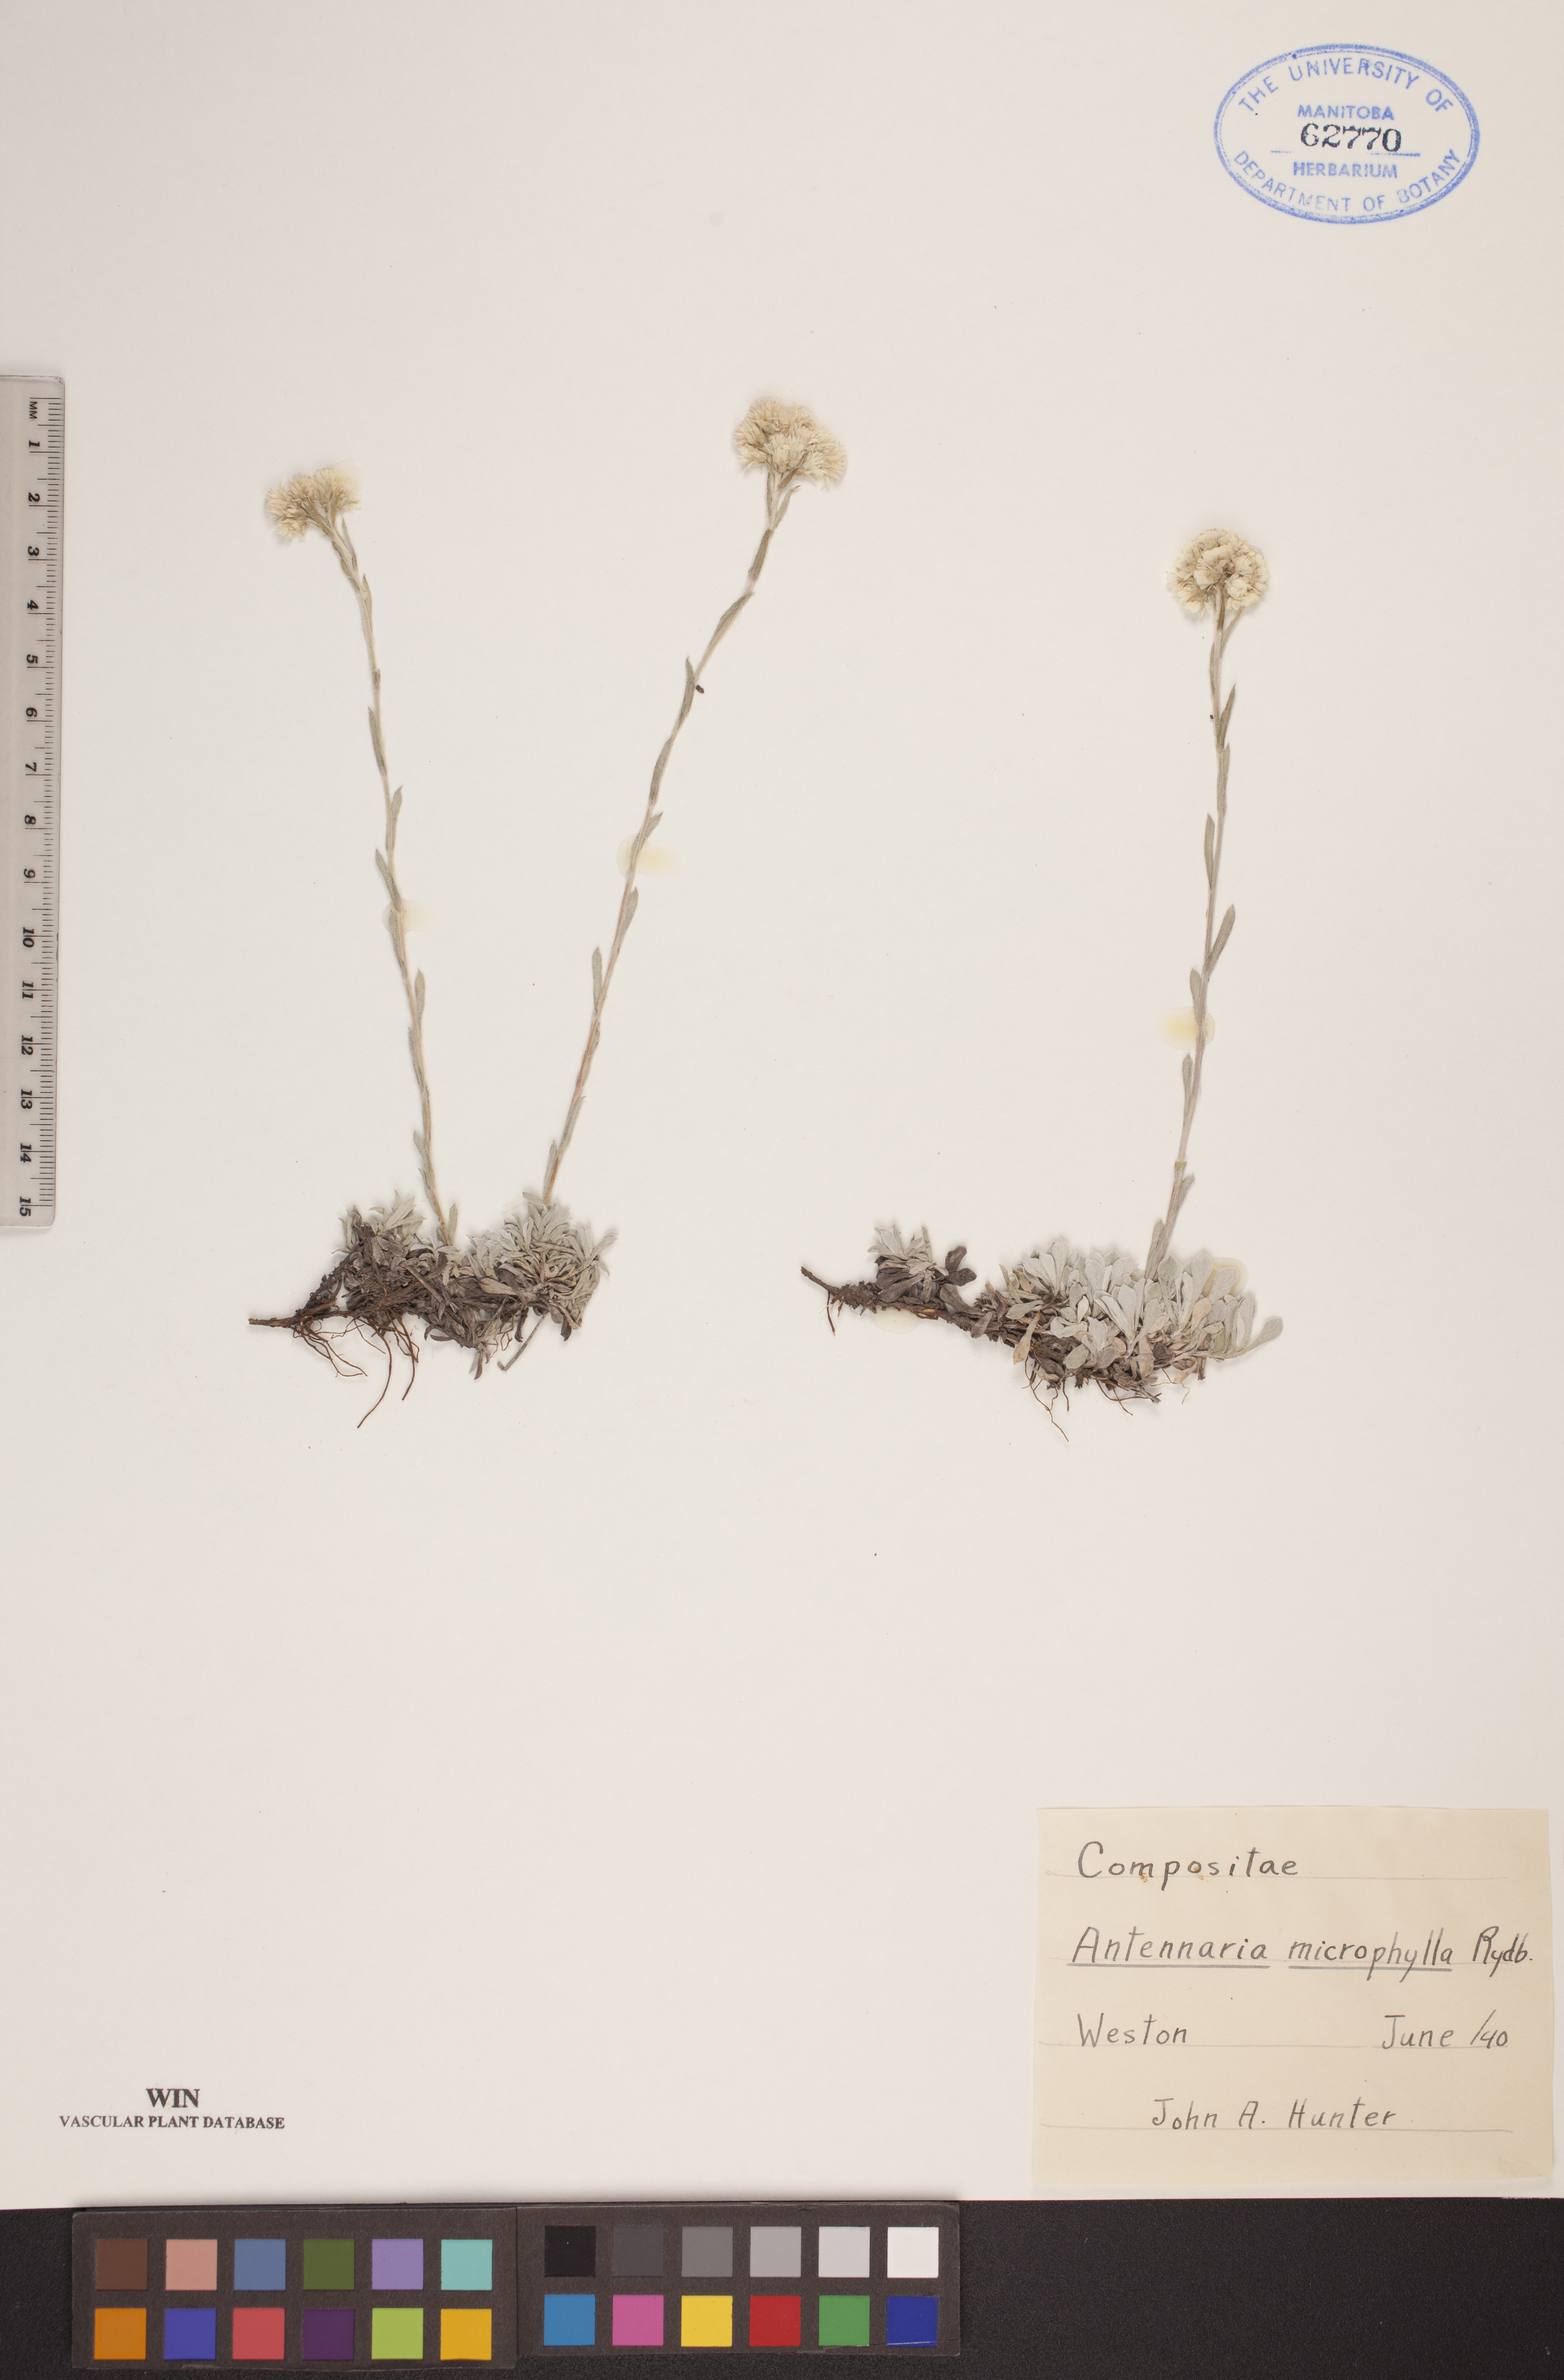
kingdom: Plantae
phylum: Tracheophyta
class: Magnoliopsida
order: Asterales
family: Asteraceae
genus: Antennaria
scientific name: Antennaria microphylla
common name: Littleleaf pussytoes
